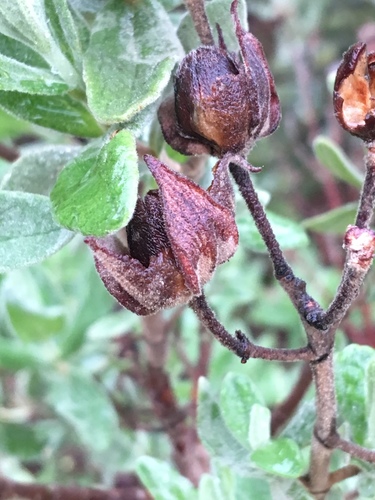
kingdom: Plantae
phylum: Tracheophyta
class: Magnoliopsida
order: Malvales
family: Cistaceae
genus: Cistus
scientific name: Cistus albidus
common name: White-leaf rock-rose
